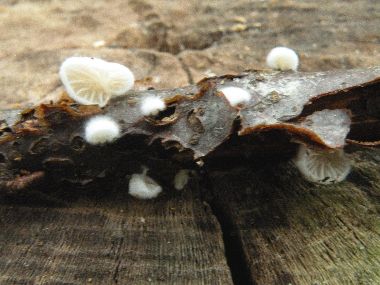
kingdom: Fungi
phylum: Basidiomycota
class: Agaricomycetes
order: Agaricales
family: Crepidotaceae
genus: Crepidotus
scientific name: Crepidotus cesatii
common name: almindelig muslingesvamp
